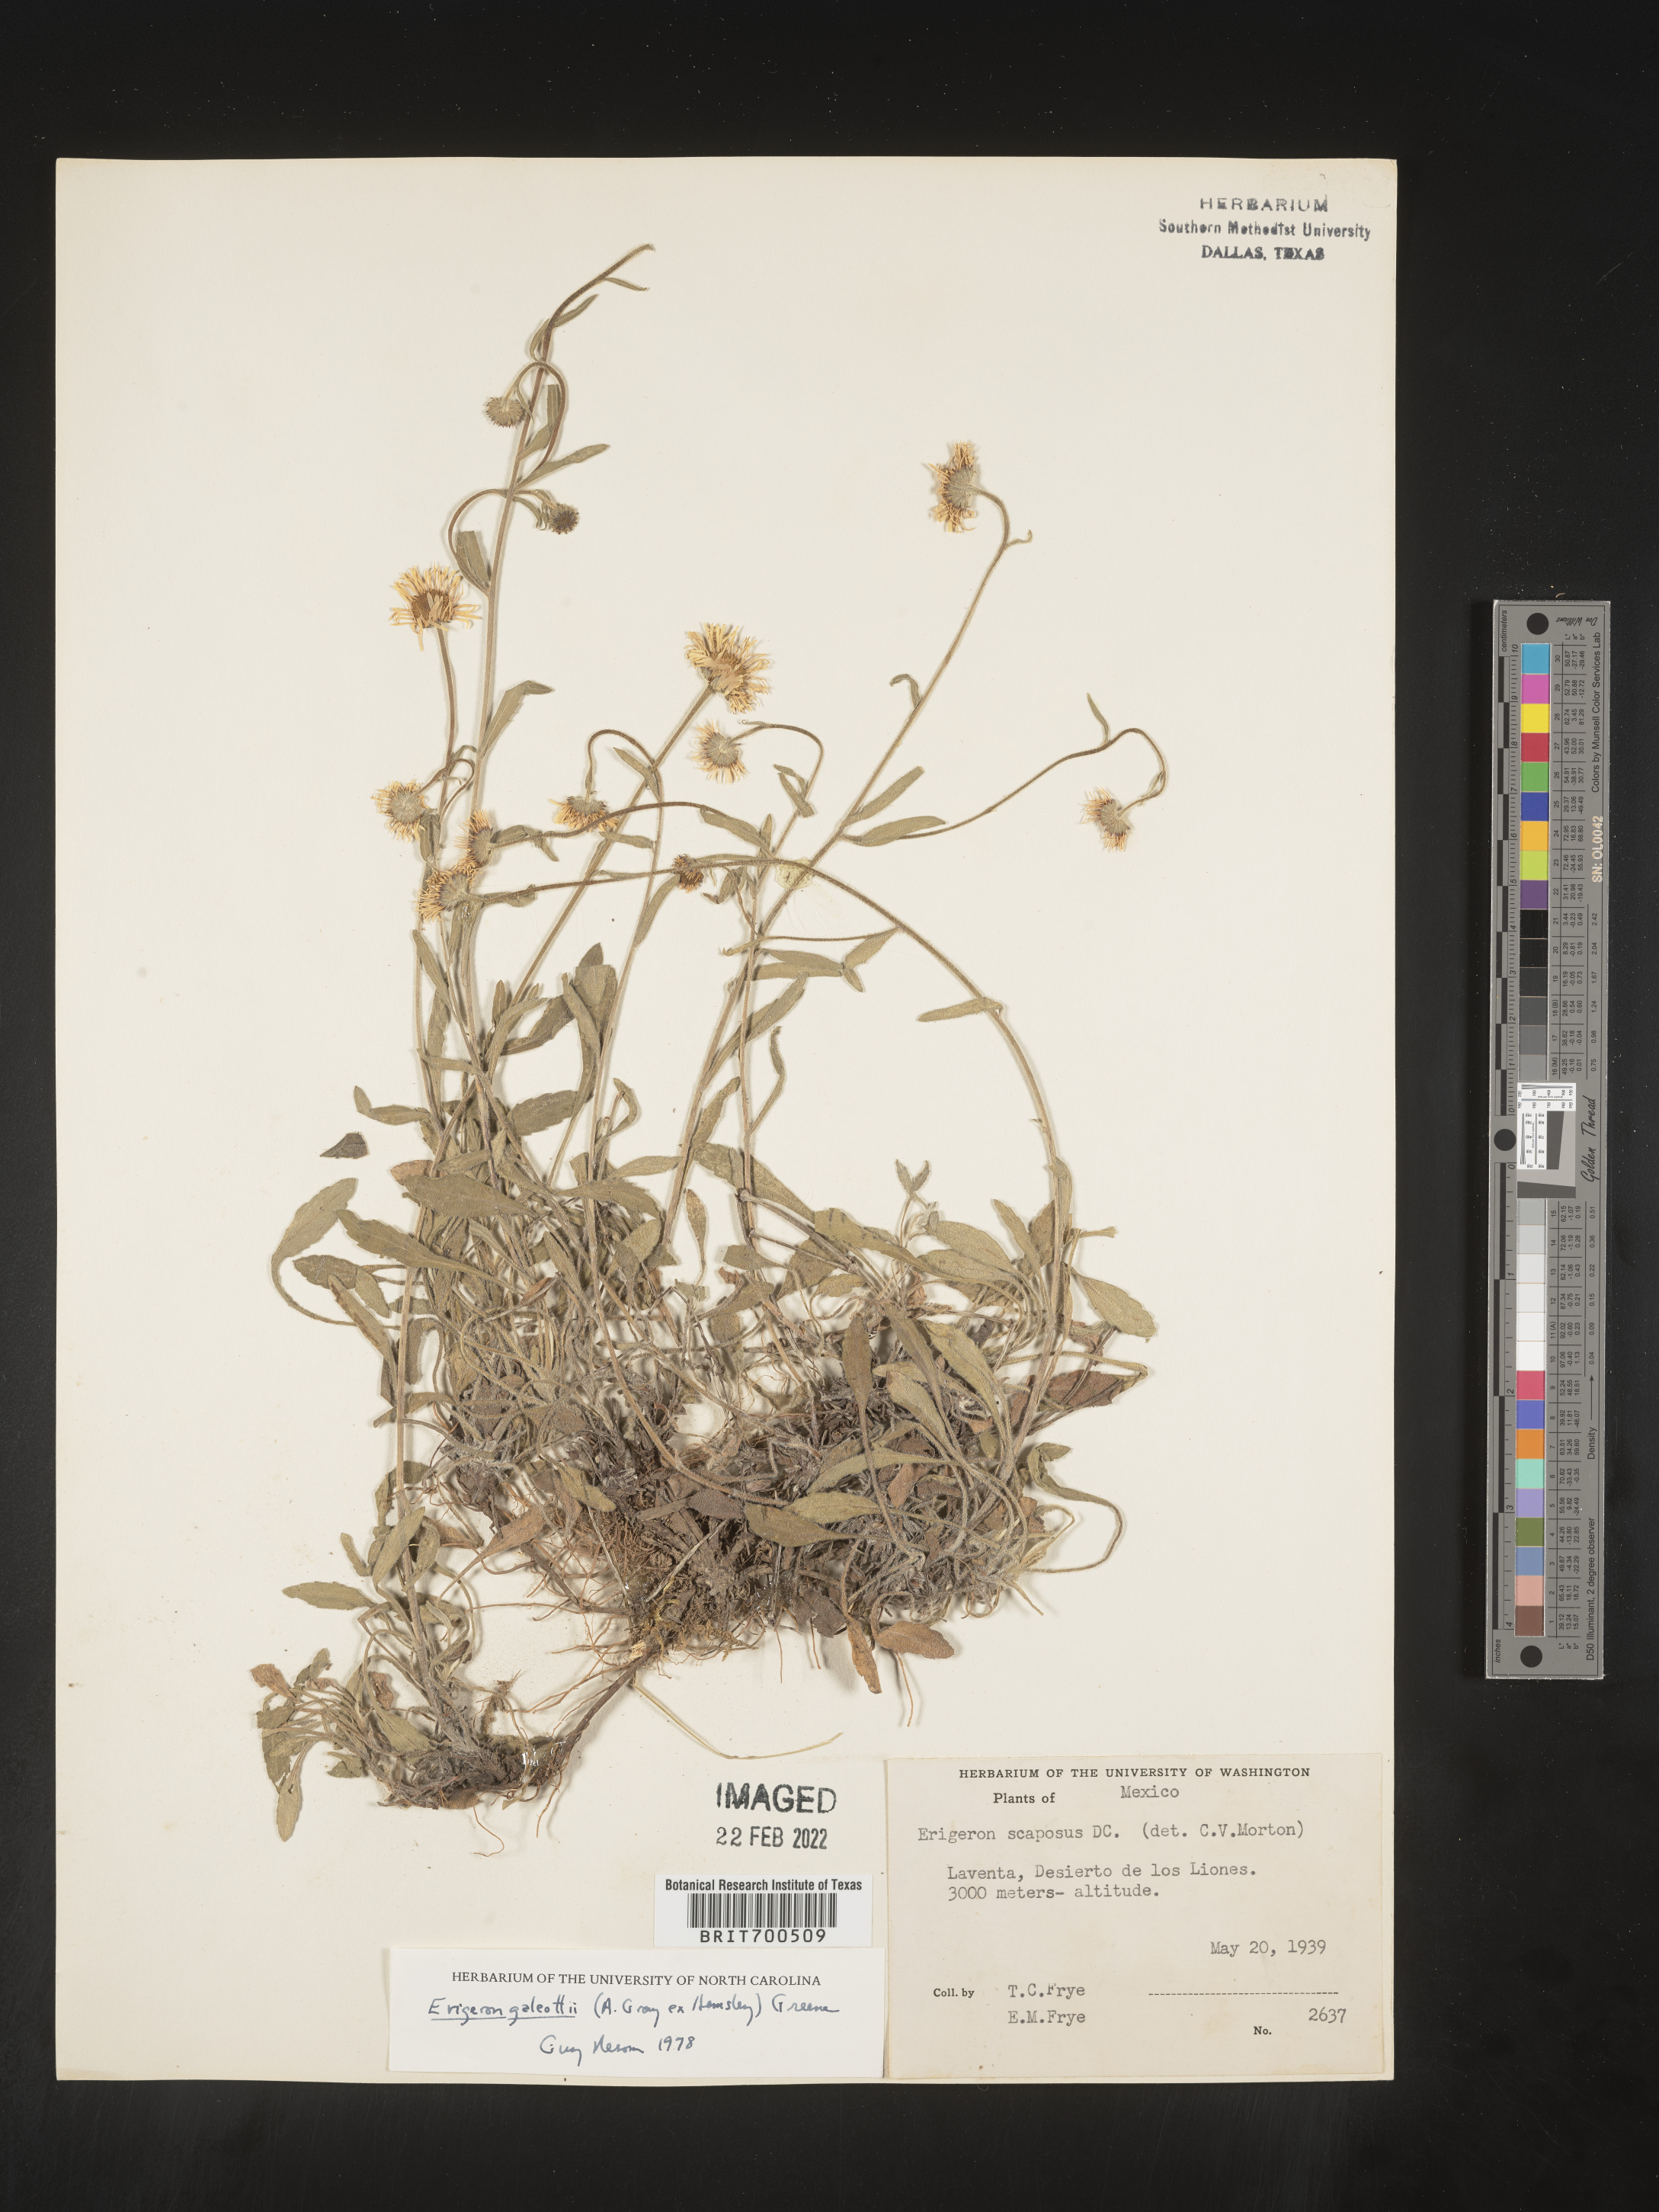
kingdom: Plantae
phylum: Tracheophyta
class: Magnoliopsida
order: Asterales
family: Asteraceae
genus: Erigeron
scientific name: Erigeron
